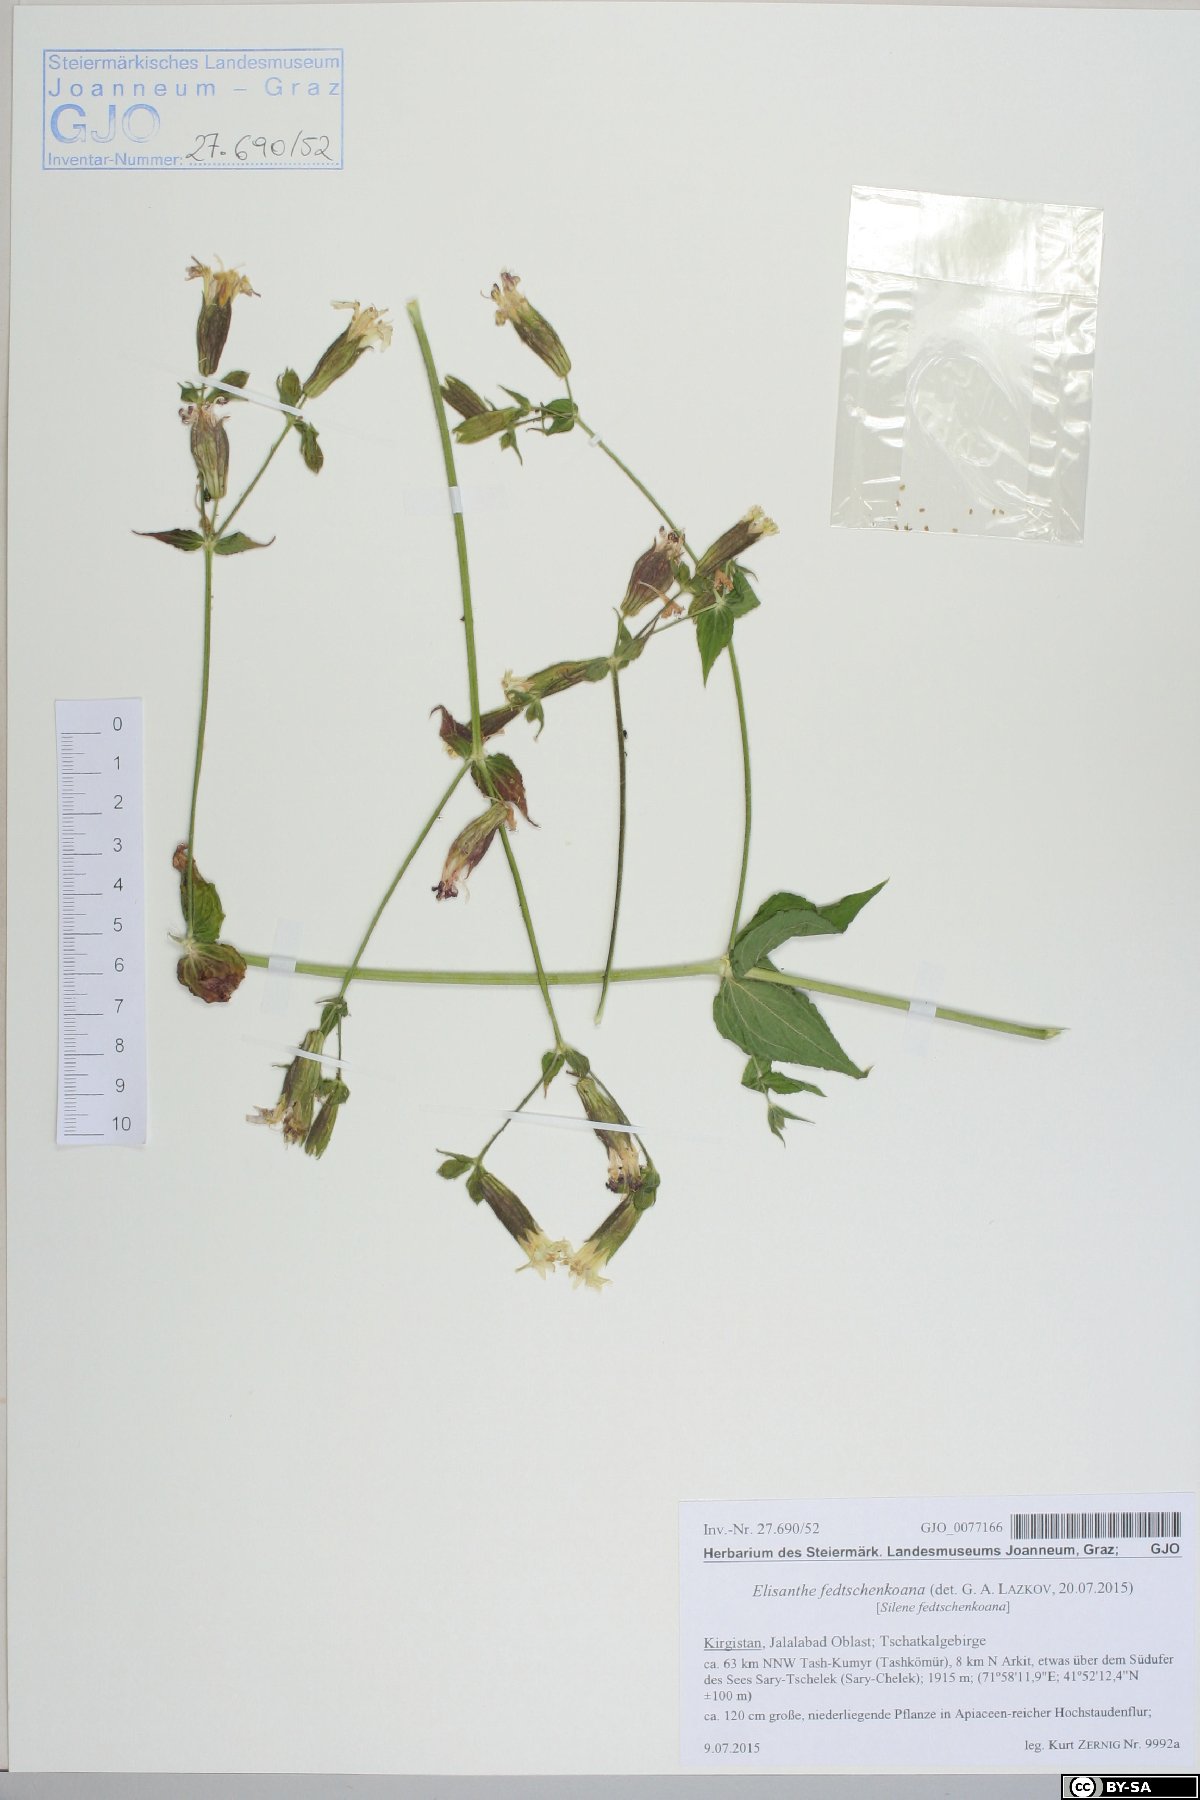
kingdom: Plantae
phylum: Tracheophyta
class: Magnoliopsida
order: Caryophyllales
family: Caryophyllaceae
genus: Silene
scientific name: Silene fedtschenkoana
